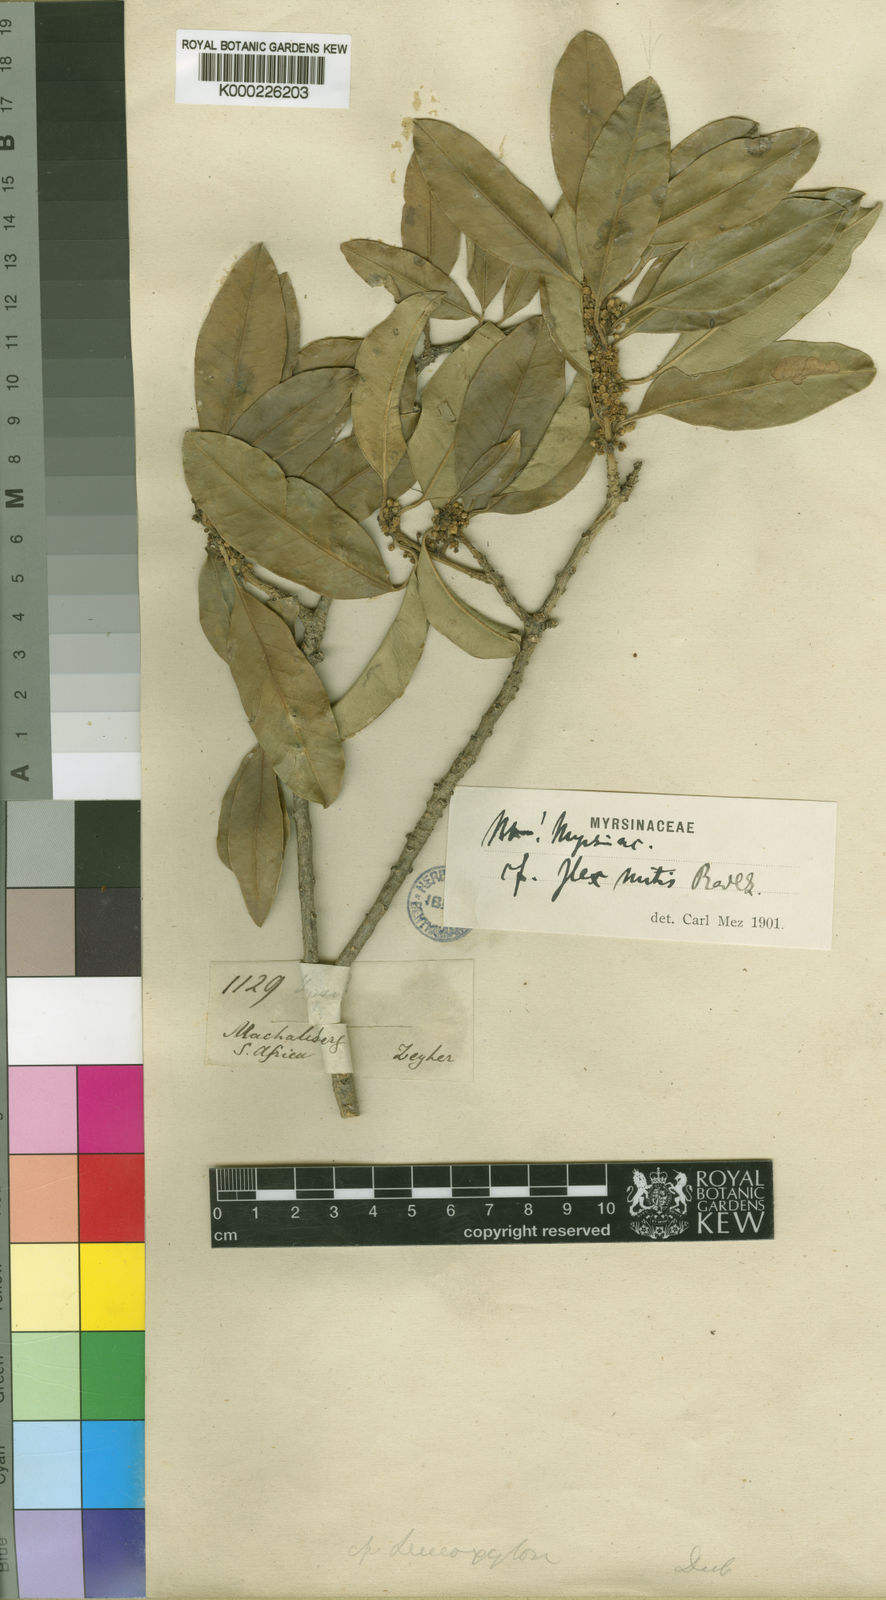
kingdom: Plantae
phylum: Tracheophyta
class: Magnoliopsida
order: Aquifoliales
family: Aquifoliaceae
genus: Ilex
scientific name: Ilex mitis
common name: African holly
